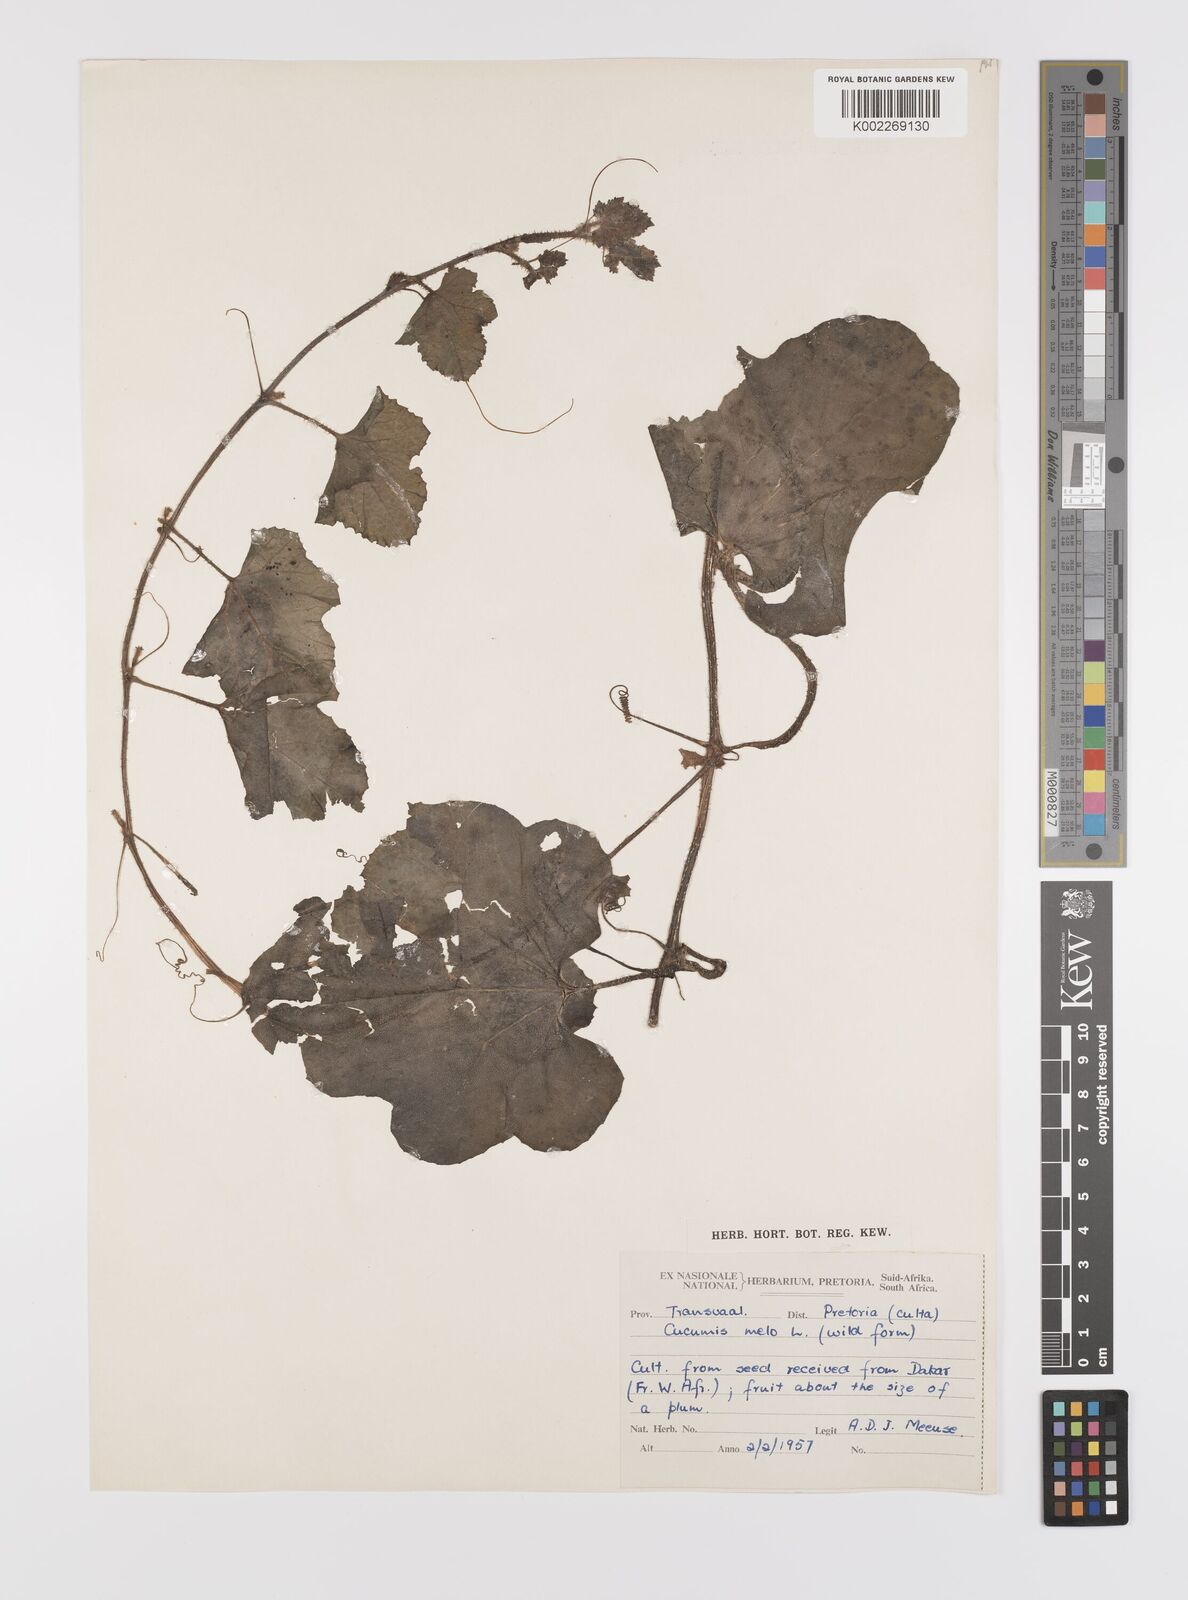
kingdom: Plantae
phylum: Tracheophyta
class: Magnoliopsida
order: Cucurbitales
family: Cucurbitaceae
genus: Cucumis
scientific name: Cucumis melo
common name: Melon
